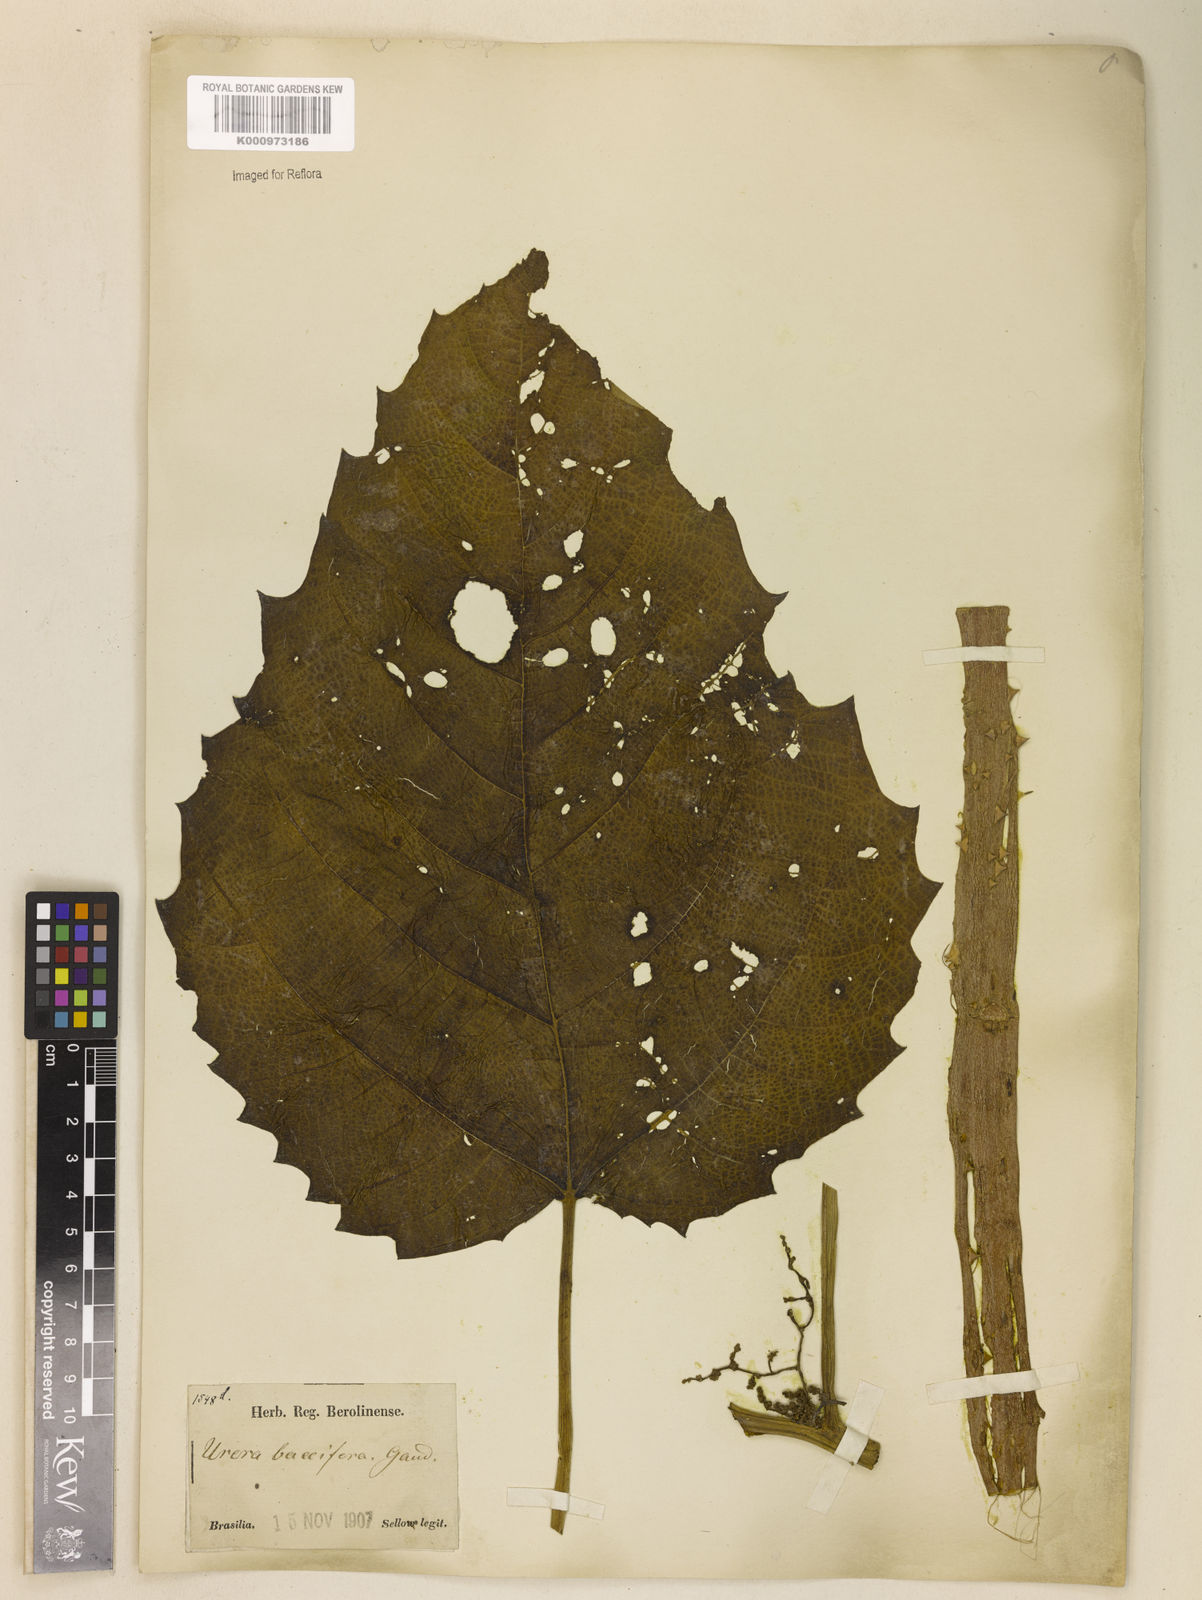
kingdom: Plantae
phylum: Tracheophyta
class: Magnoliopsida
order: Rosales
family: Urticaceae
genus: Urera
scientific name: Urera baccifera
